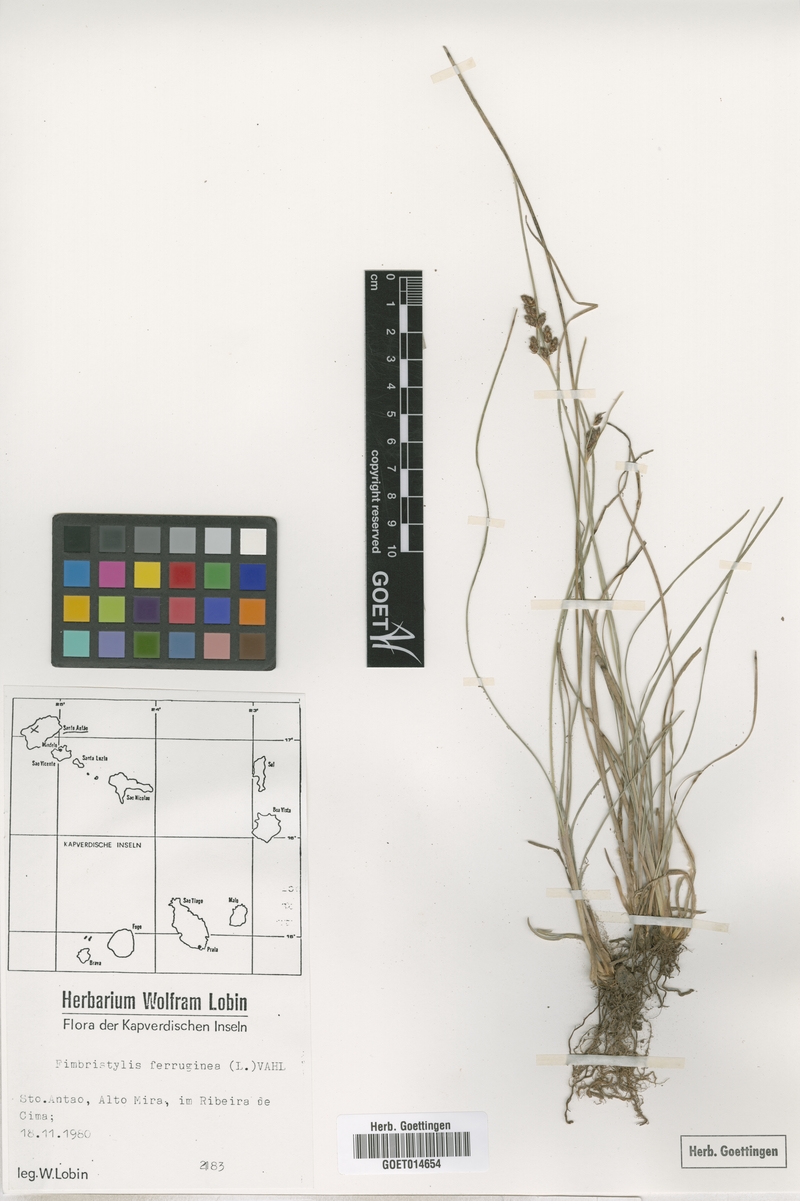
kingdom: Plantae
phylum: Tracheophyta
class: Liliopsida
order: Poales
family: Cyperaceae
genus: Fimbristylis
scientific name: Fimbristylis ferruginea
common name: West indian fimbry
